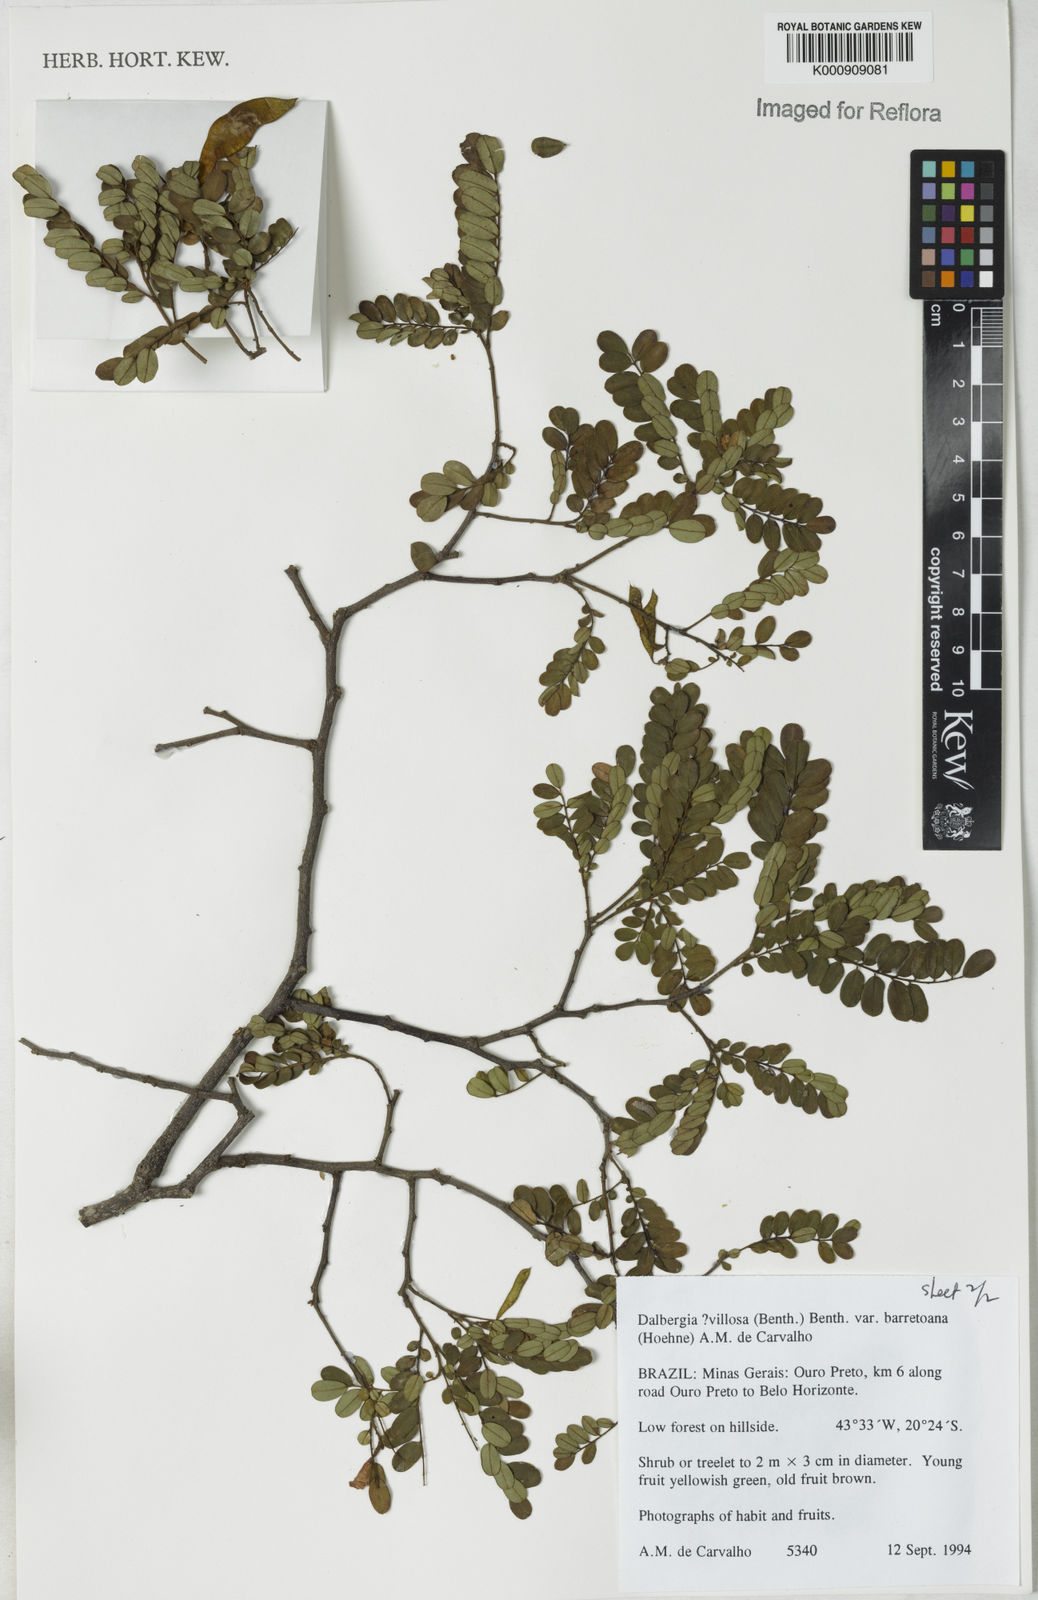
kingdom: Plantae
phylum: Tracheophyta
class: Magnoliopsida
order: Fabales
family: Fabaceae
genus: Dalbergia
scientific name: Dalbergia villosa
